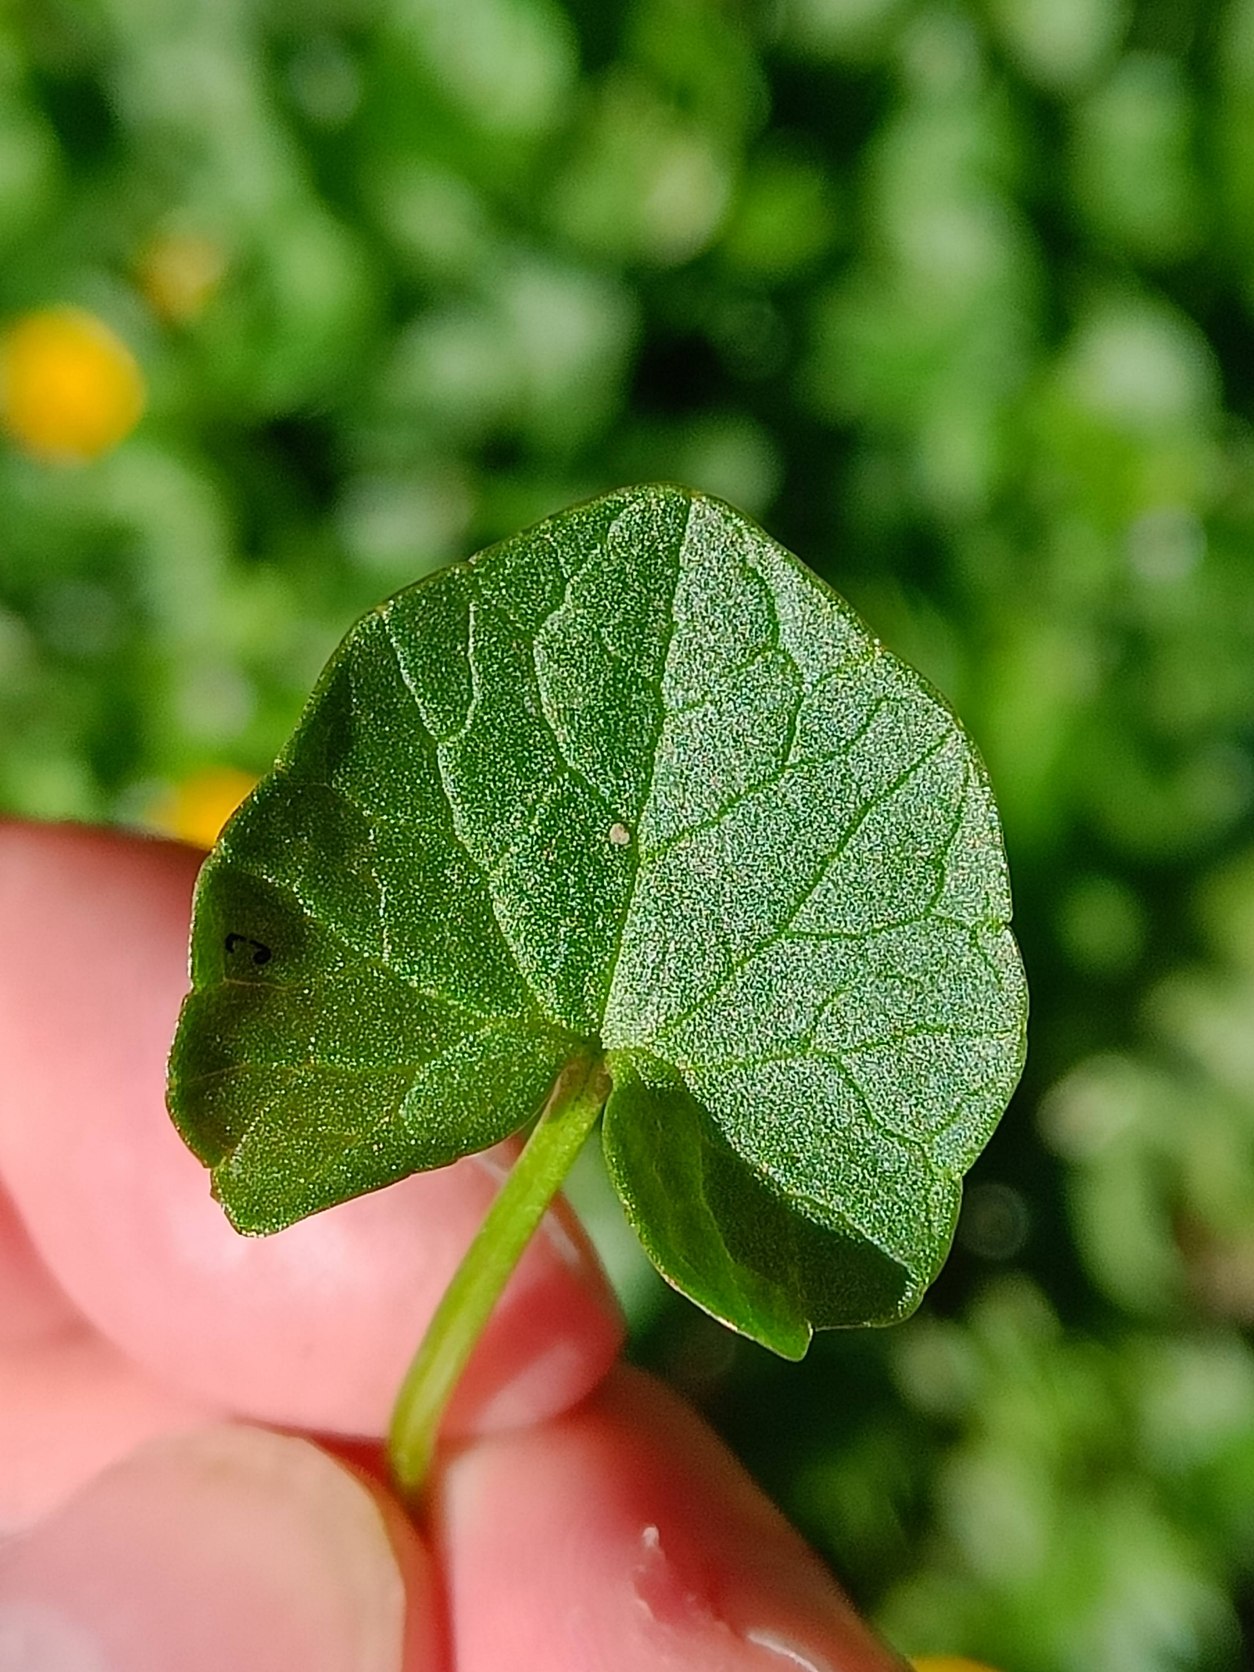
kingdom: Plantae
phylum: Tracheophyta
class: Magnoliopsida
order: Ranunculales
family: Ranunculaceae
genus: Ficaria
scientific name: Ficaria verna
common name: Vorterod
